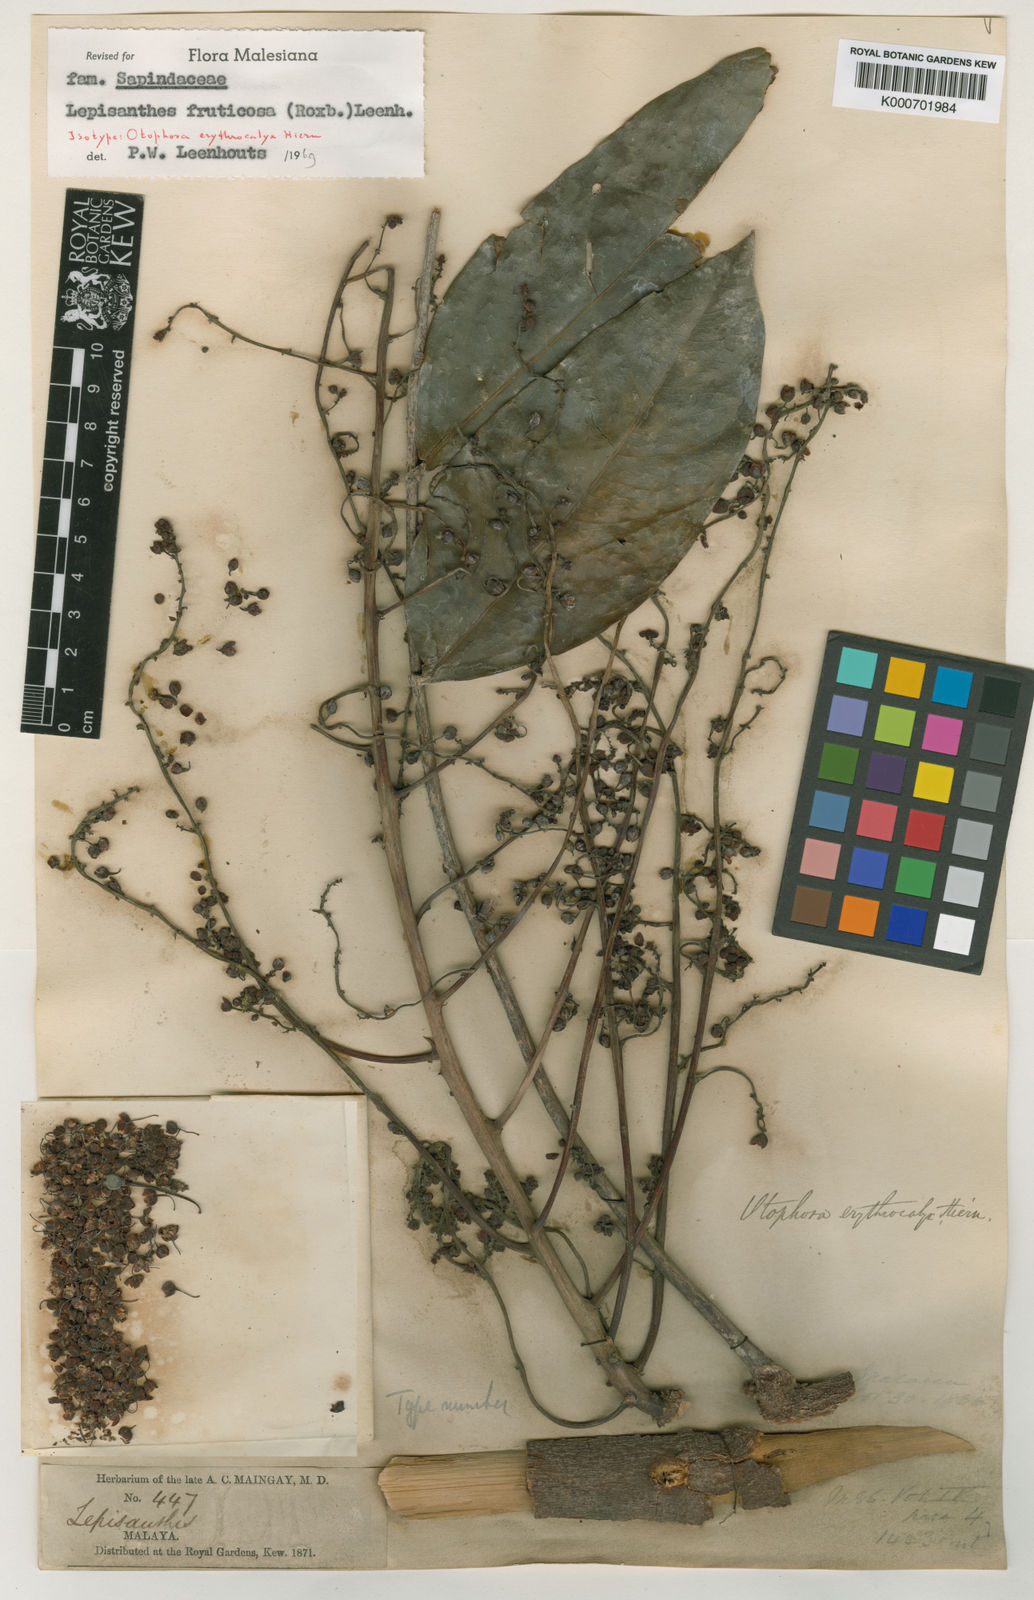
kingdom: Plantae
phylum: Tracheophyta
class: Magnoliopsida
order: Sapindales
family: Sapindaceae
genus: Lepisanthes
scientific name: Lepisanthes fruticosa
